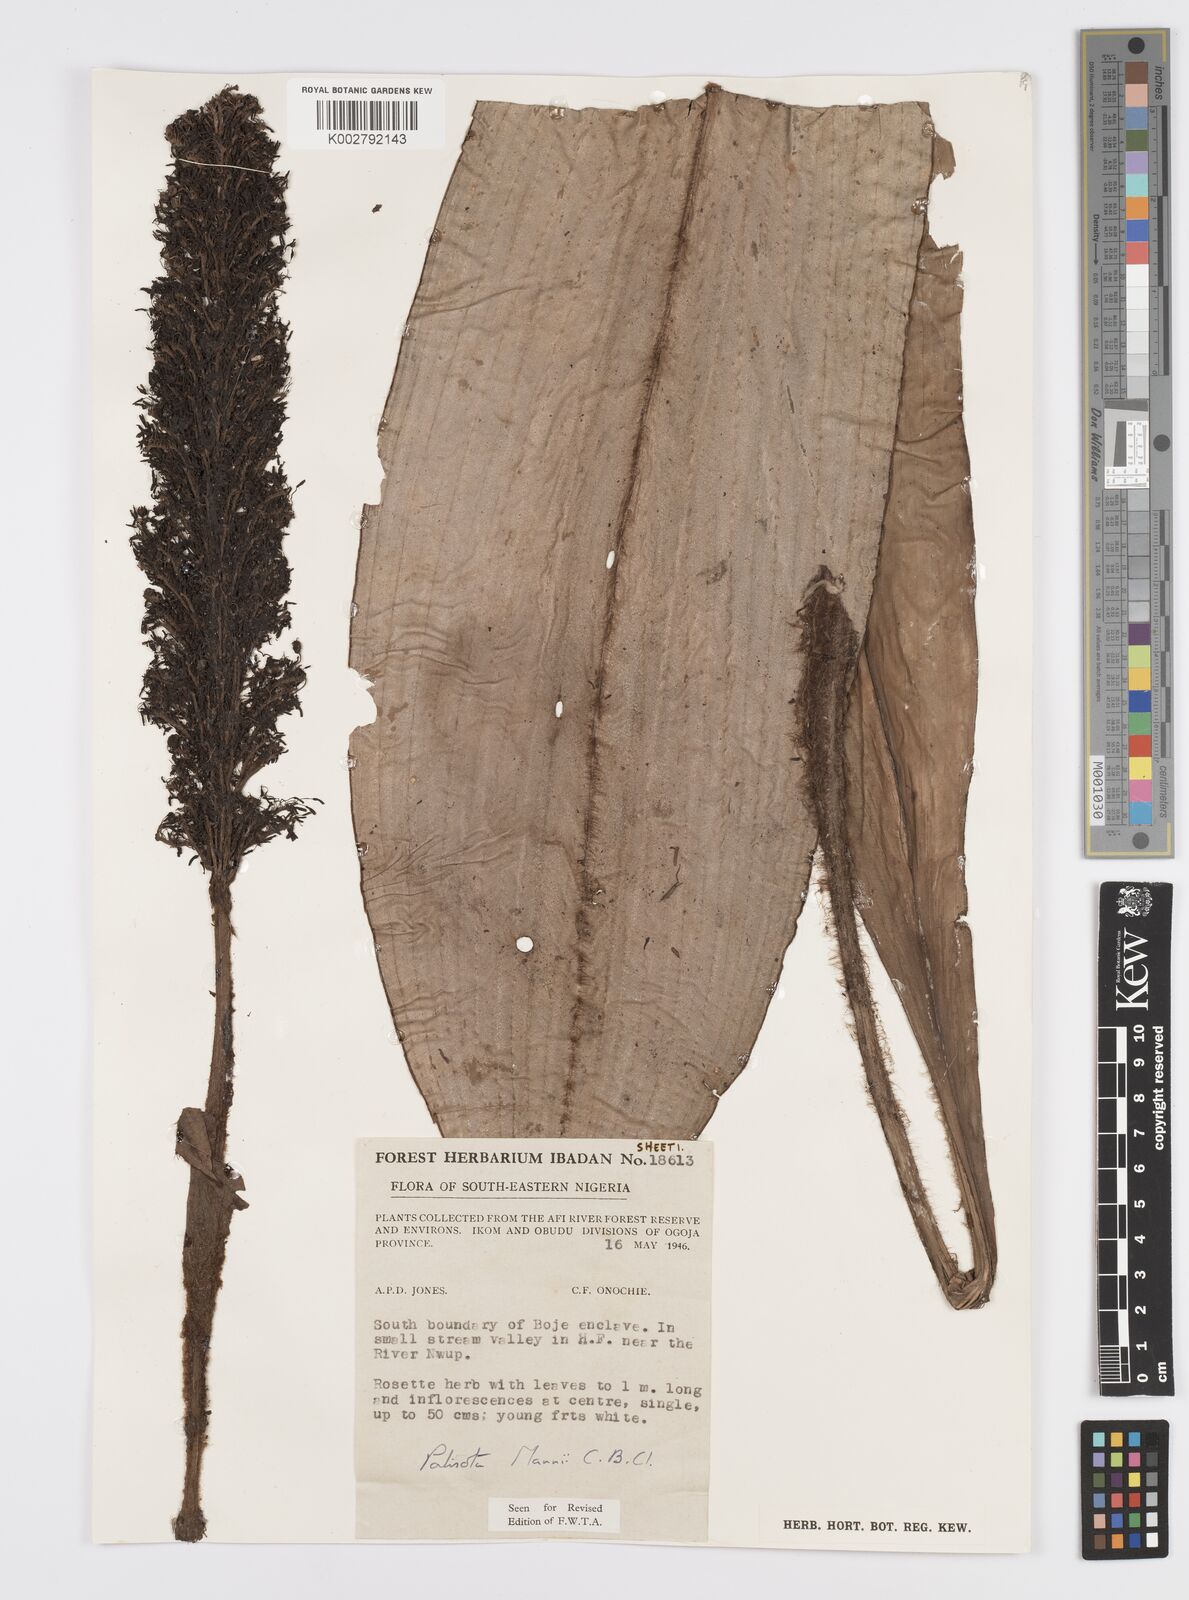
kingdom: Plantae
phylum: Tracheophyta
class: Liliopsida
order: Commelinales
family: Commelinaceae
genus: Palisota
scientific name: Palisota mannii
